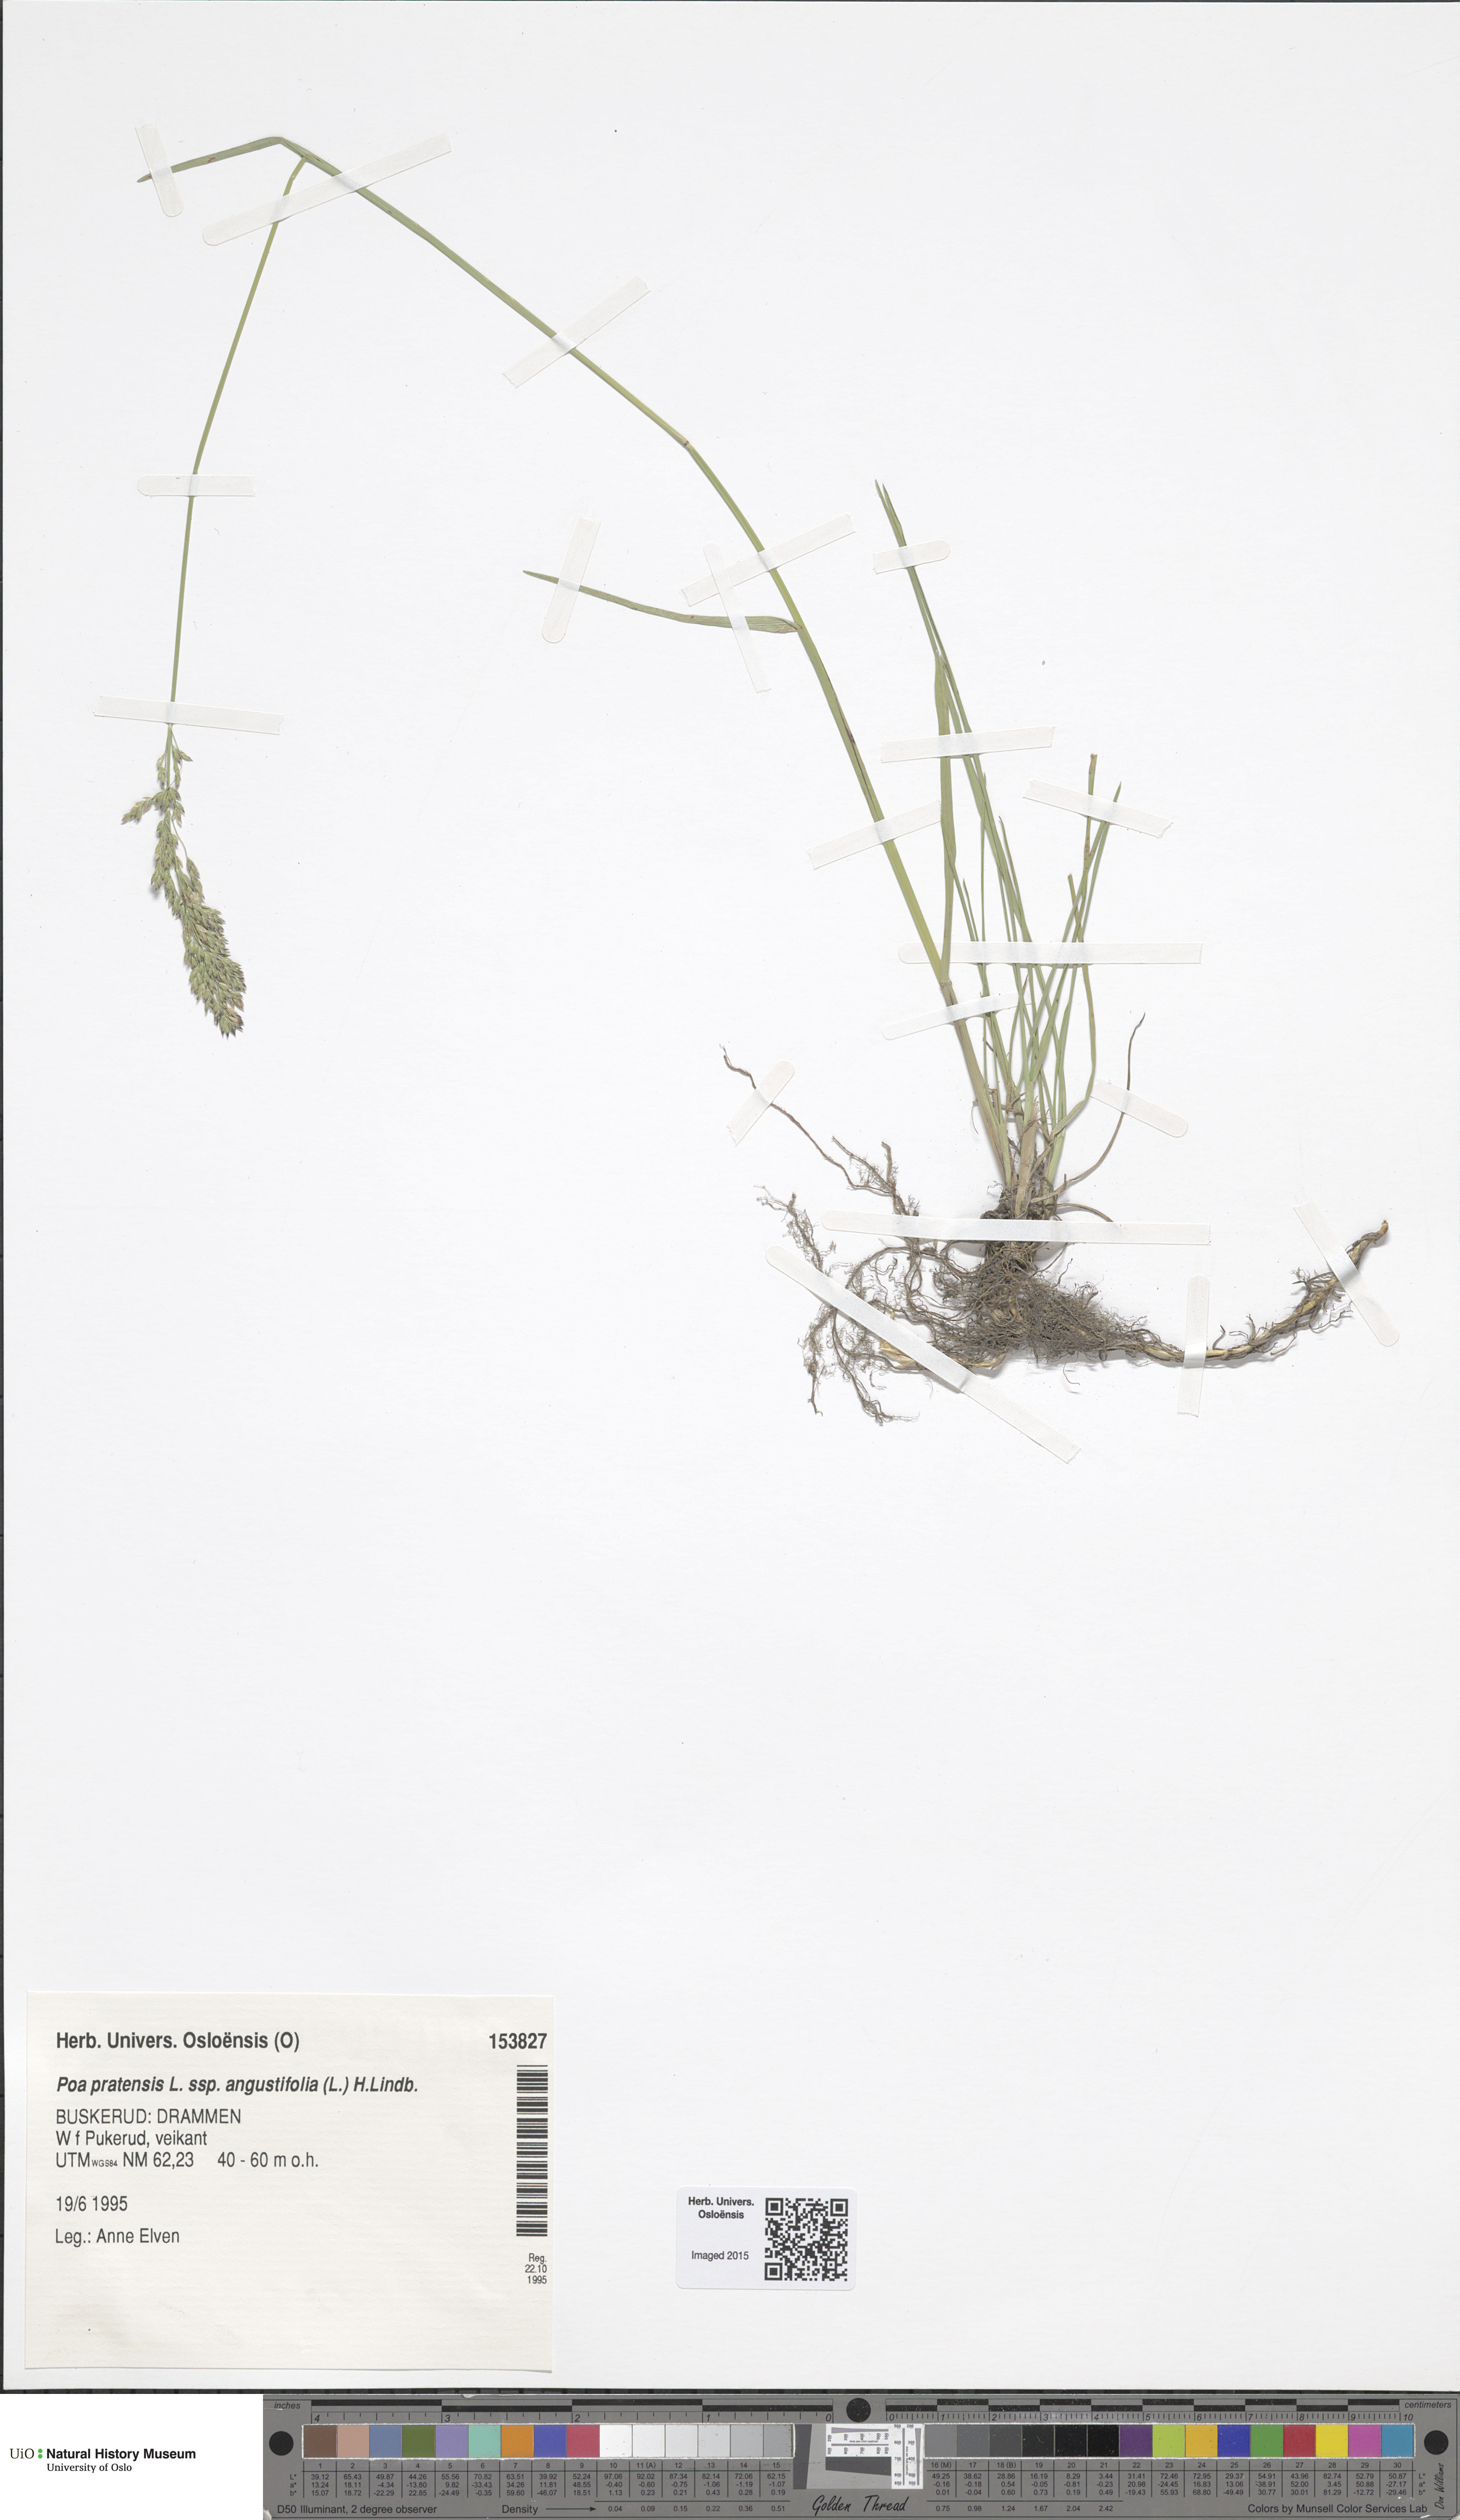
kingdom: Plantae
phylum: Tracheophyta
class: Liliopsida
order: Poales
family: Poaceae
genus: Poa
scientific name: Poa angustifolia
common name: Narrow-leaved meadow-grass
